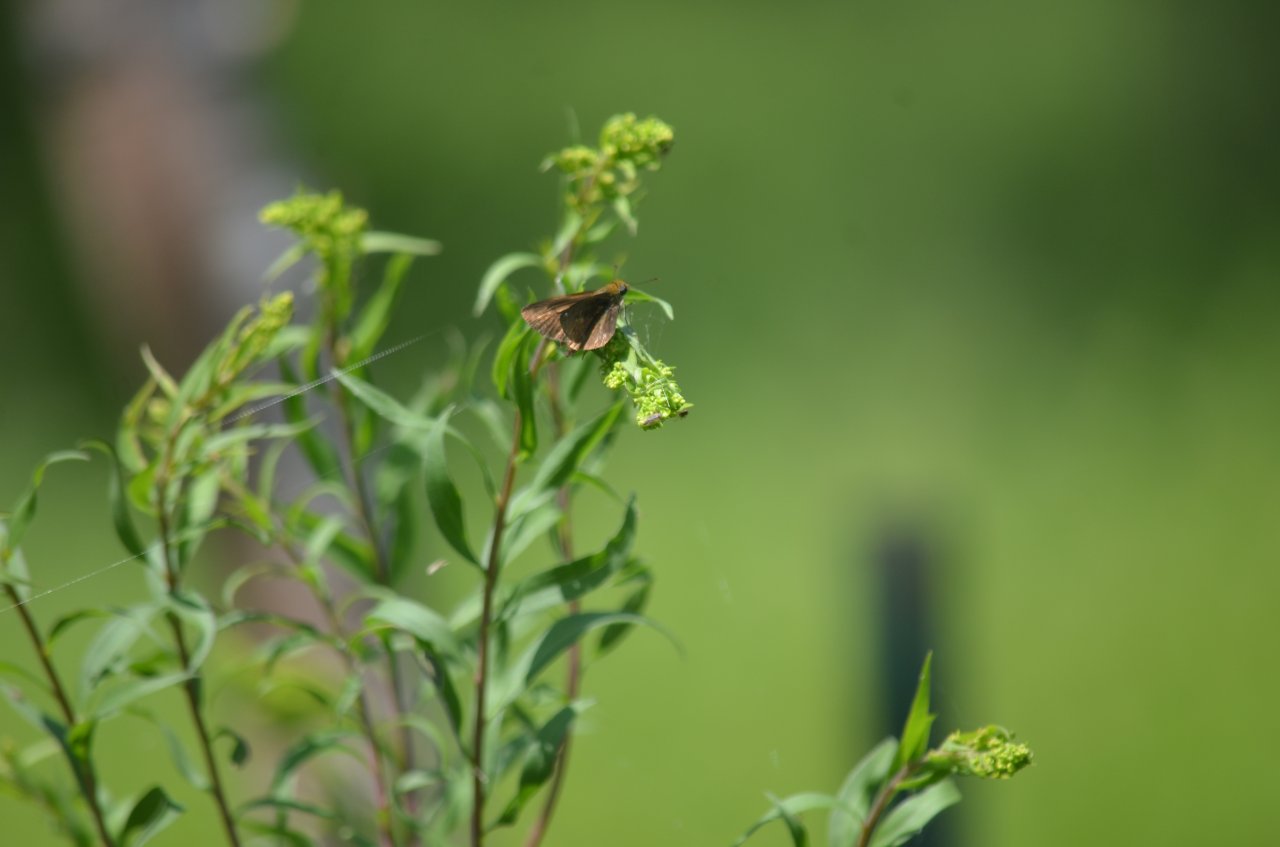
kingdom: Animalia
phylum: Arthropoda
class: Insecta
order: Lepidoptera
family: Hesperiidae
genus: Euphyes
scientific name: Euphyes vestris
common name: Dun Skipper
